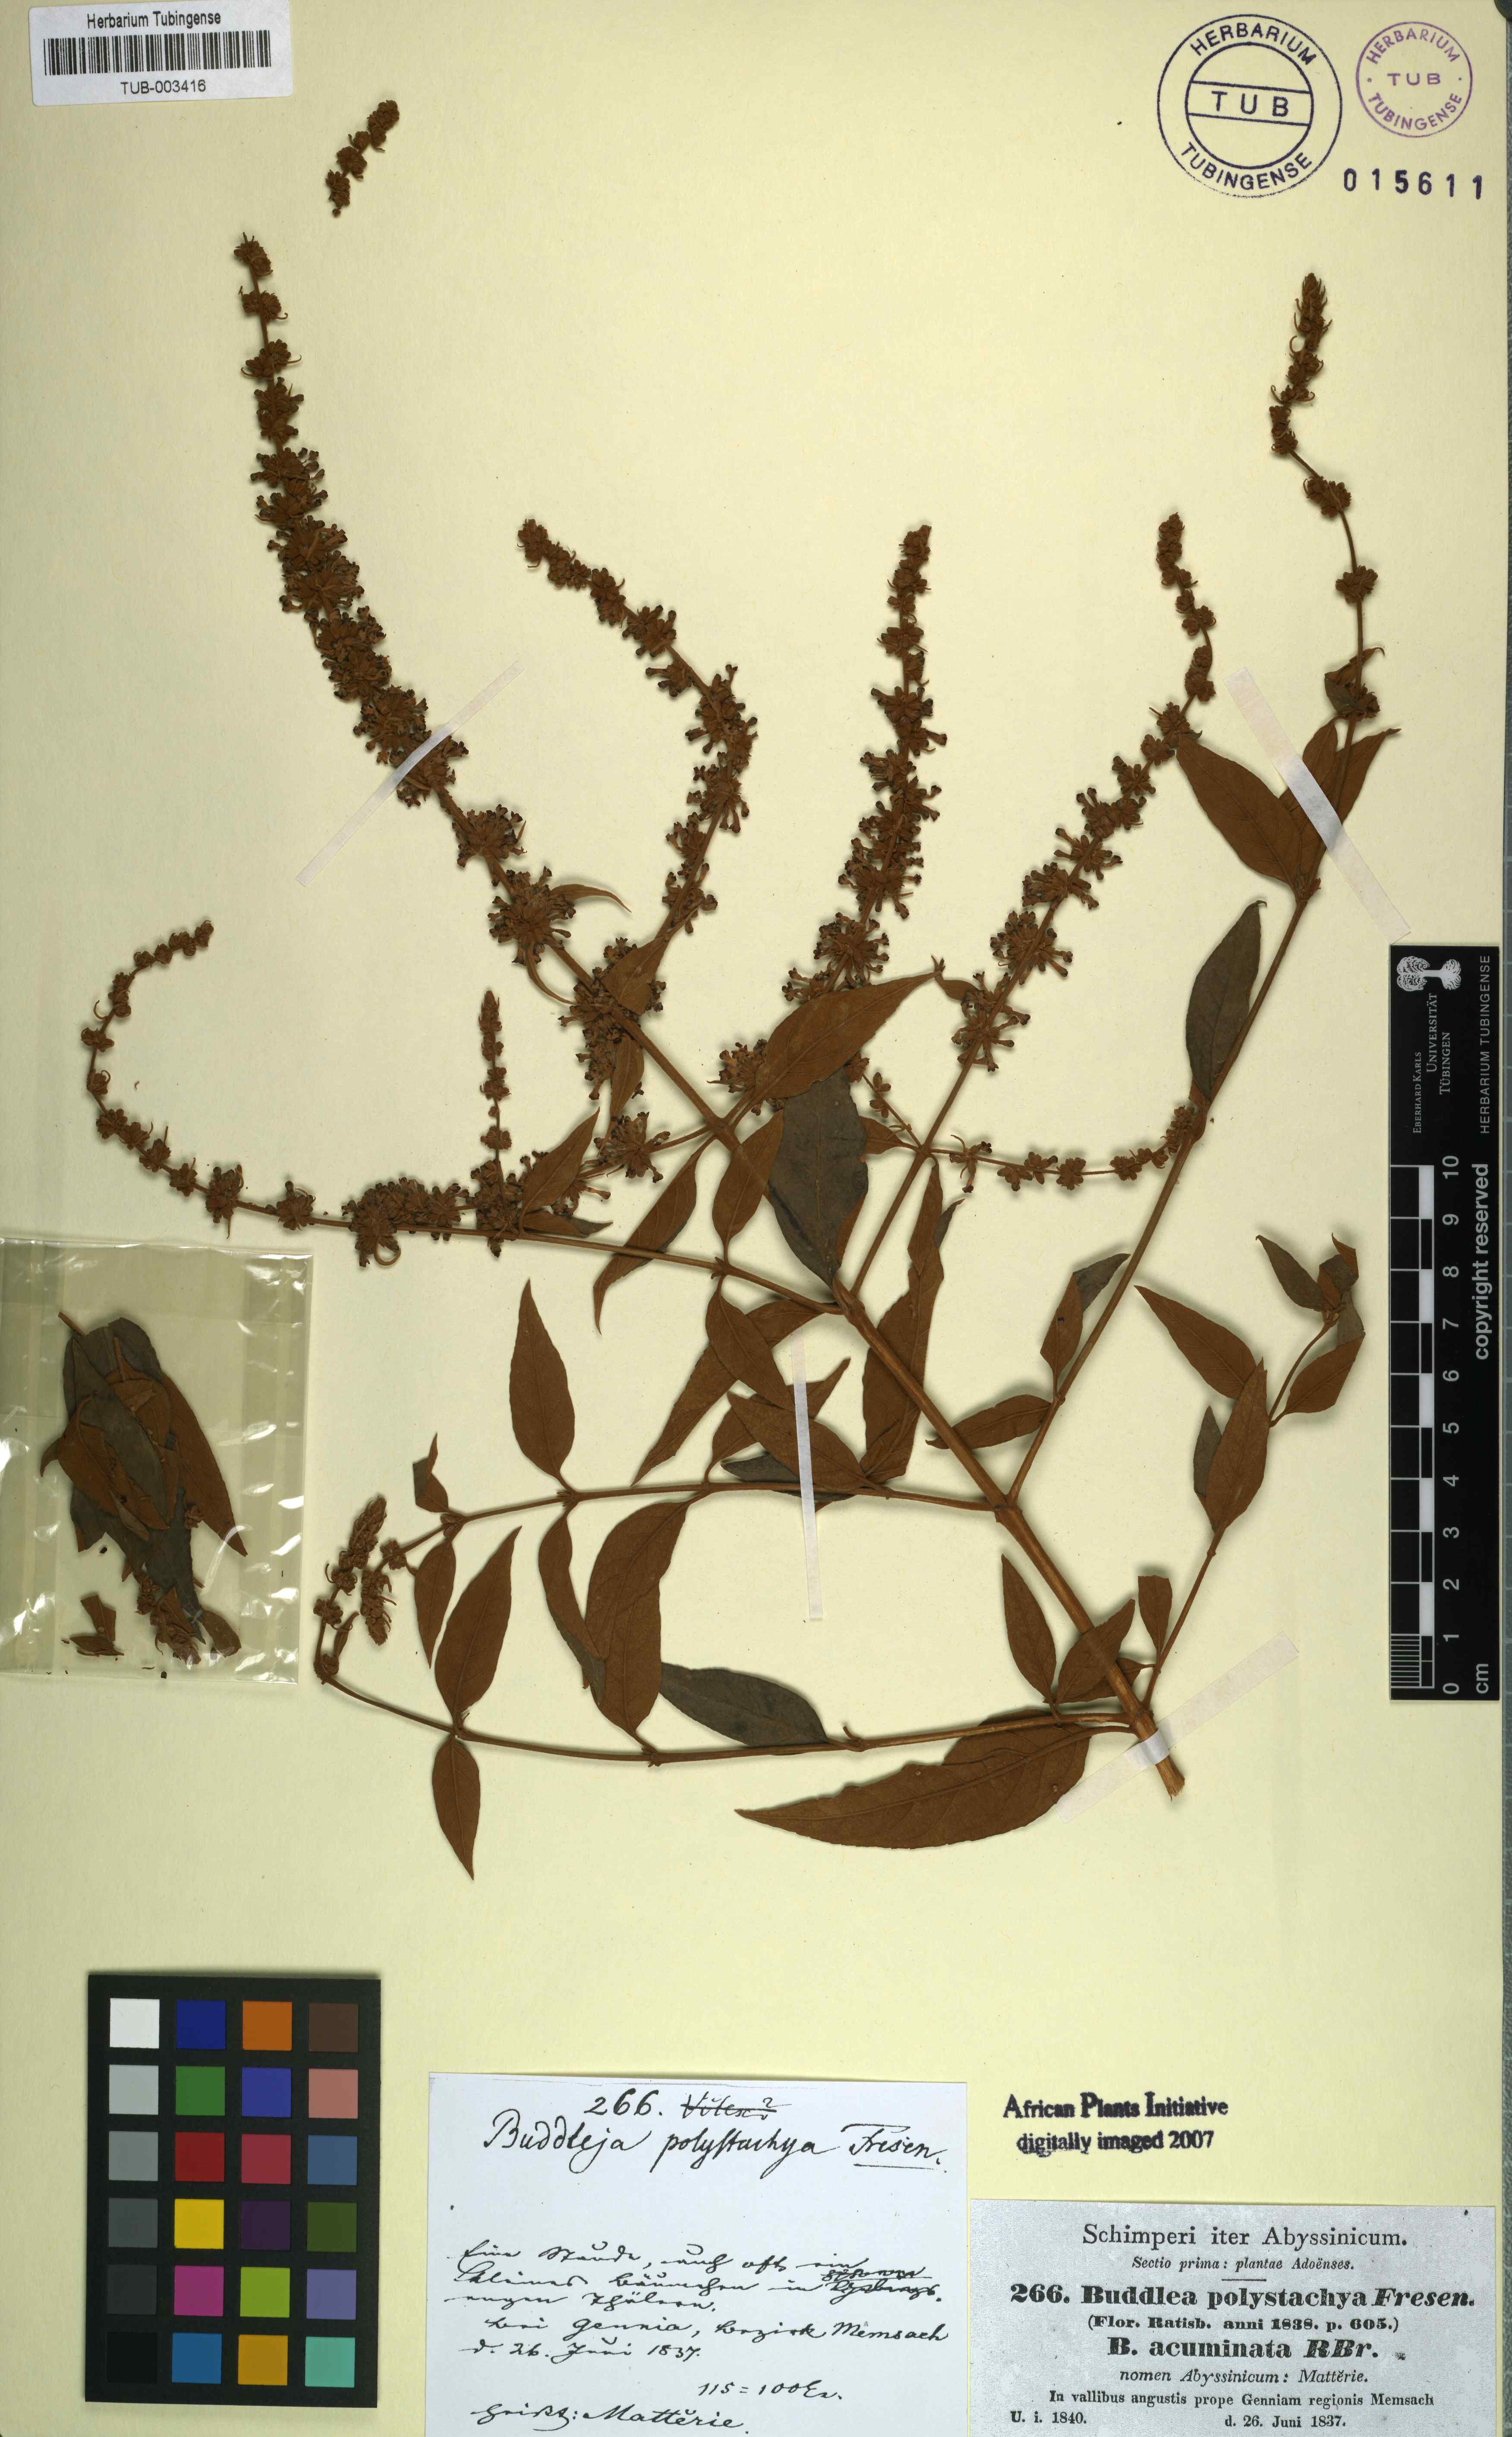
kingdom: Plantae
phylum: Tracheophyta
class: Magnoliopsida
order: Lamiales
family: Scrophulariaceae
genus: Buddleja
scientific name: Buddleja polystachya
